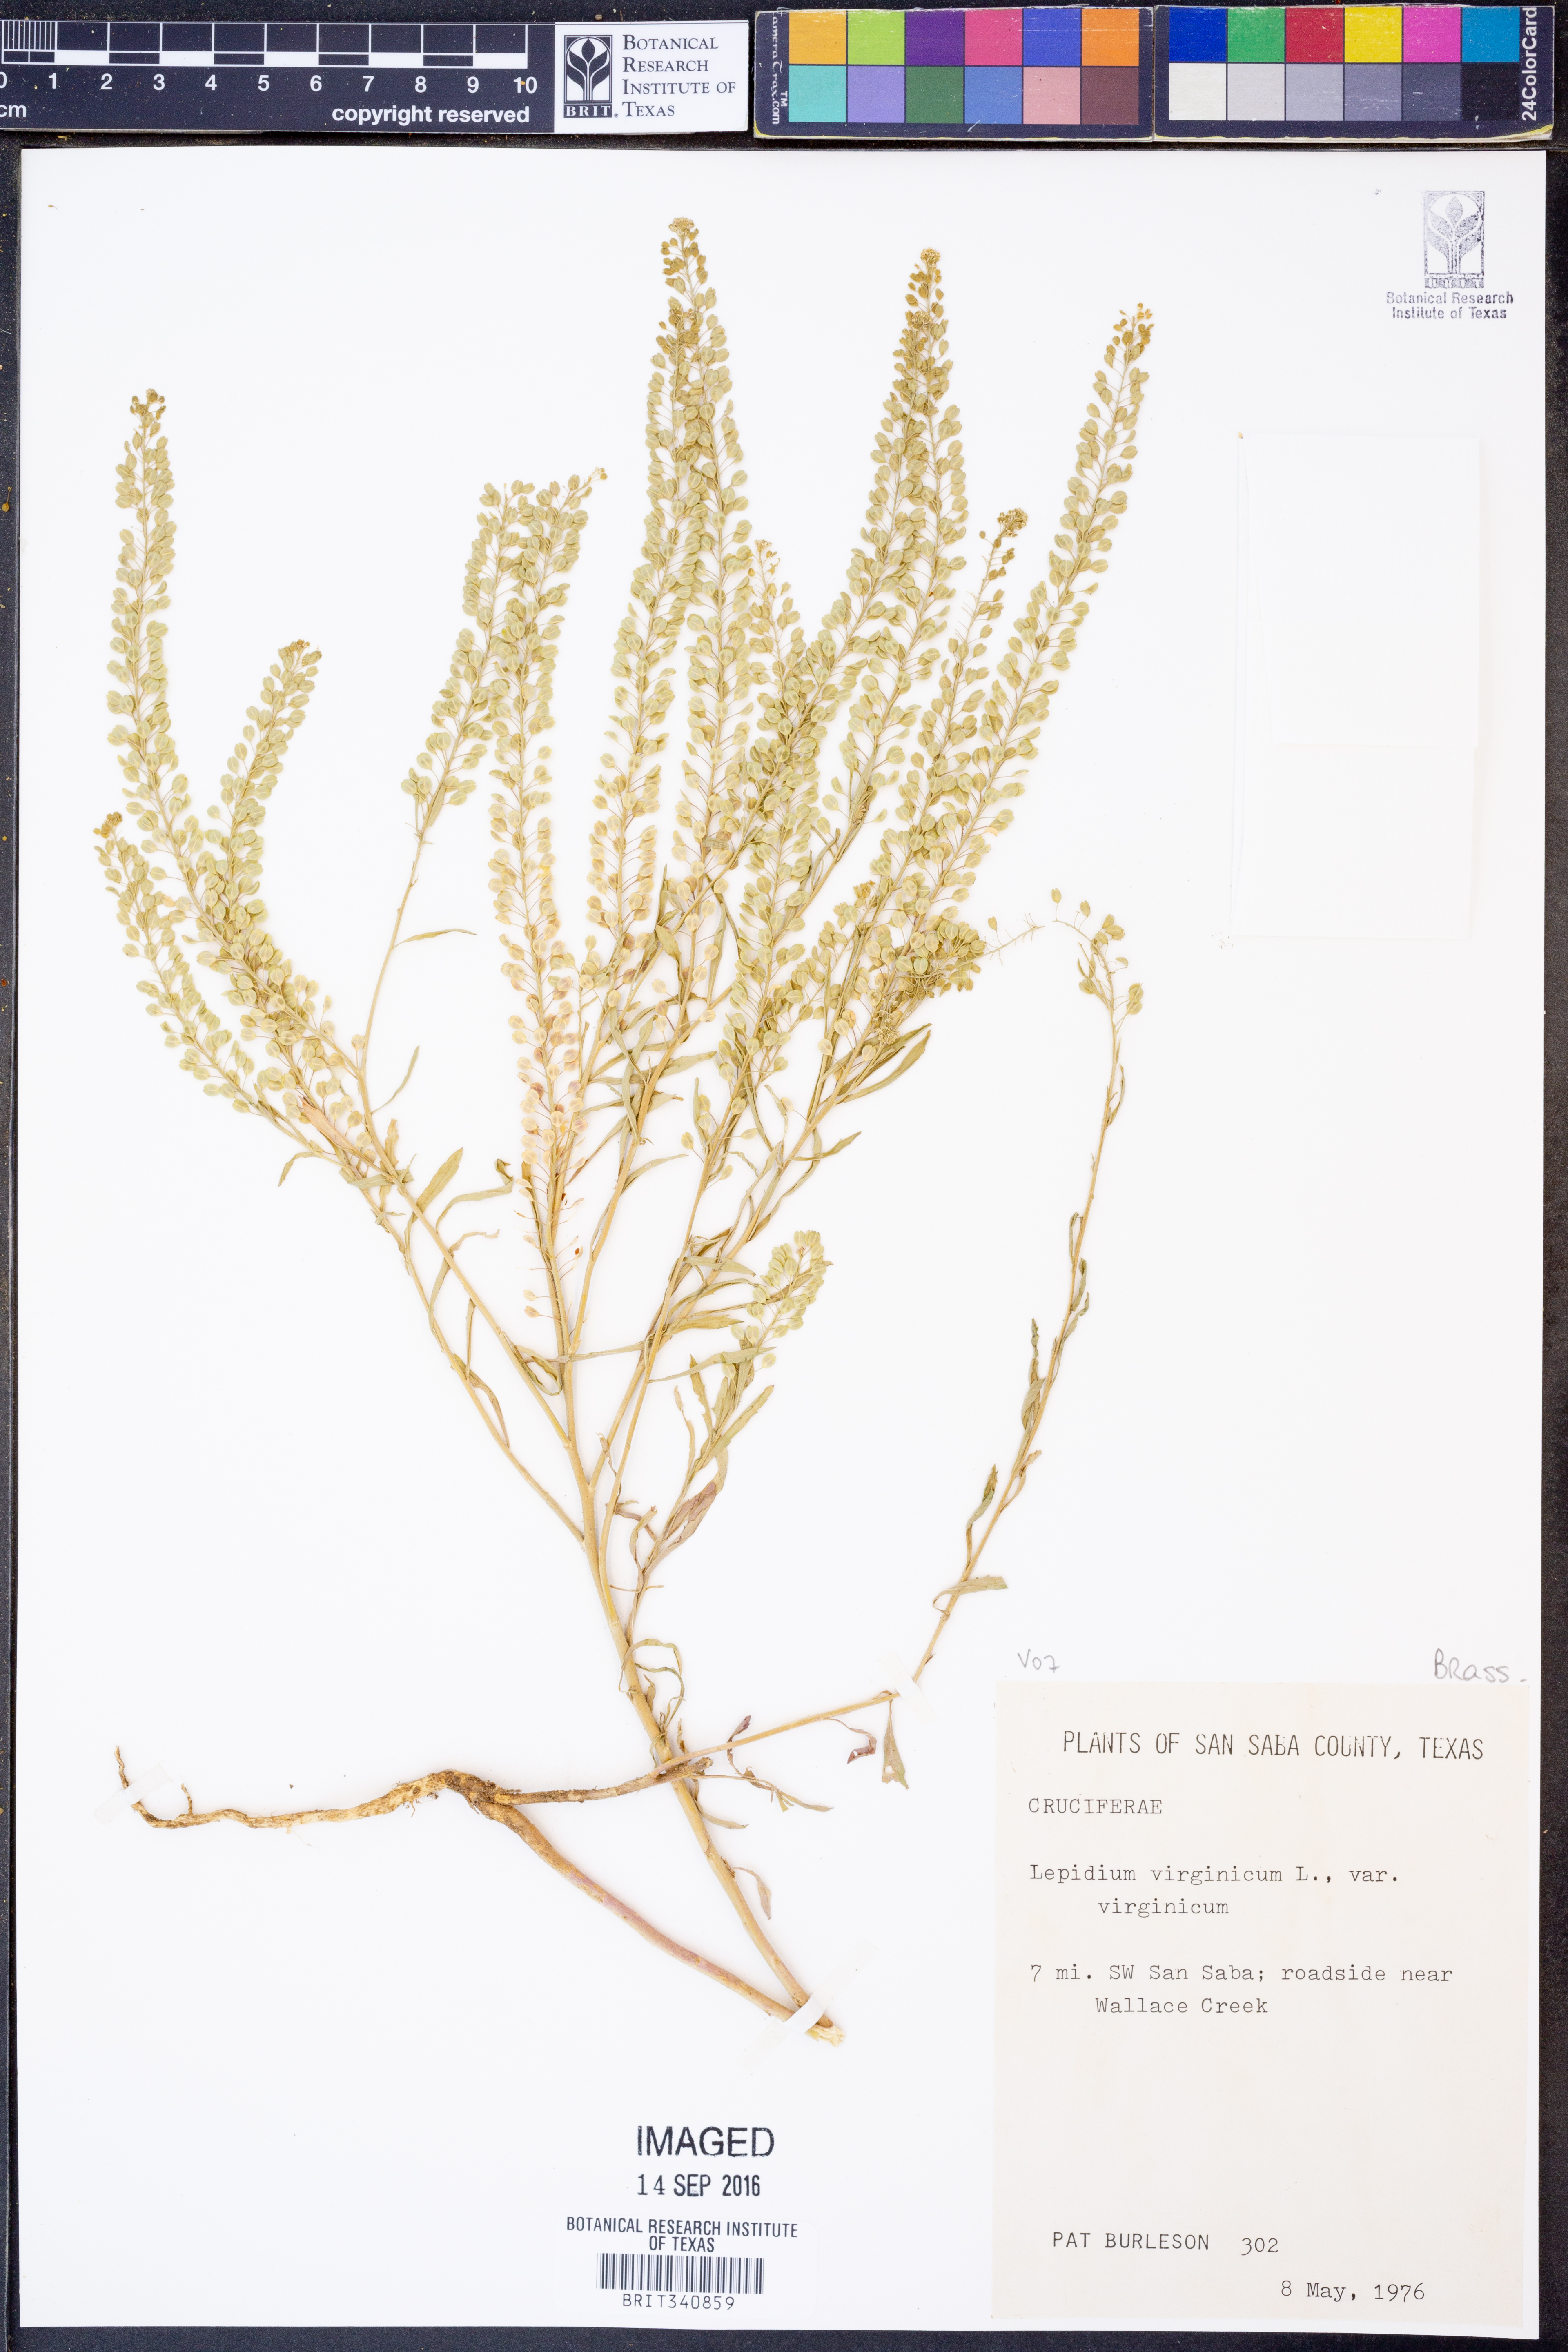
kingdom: Plantae
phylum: Tracheophyta
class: Magnoliopsida
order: Brassicales
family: Brassicaceae
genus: Lepidium
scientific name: Lepidium virginicum
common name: Least pepperwort
